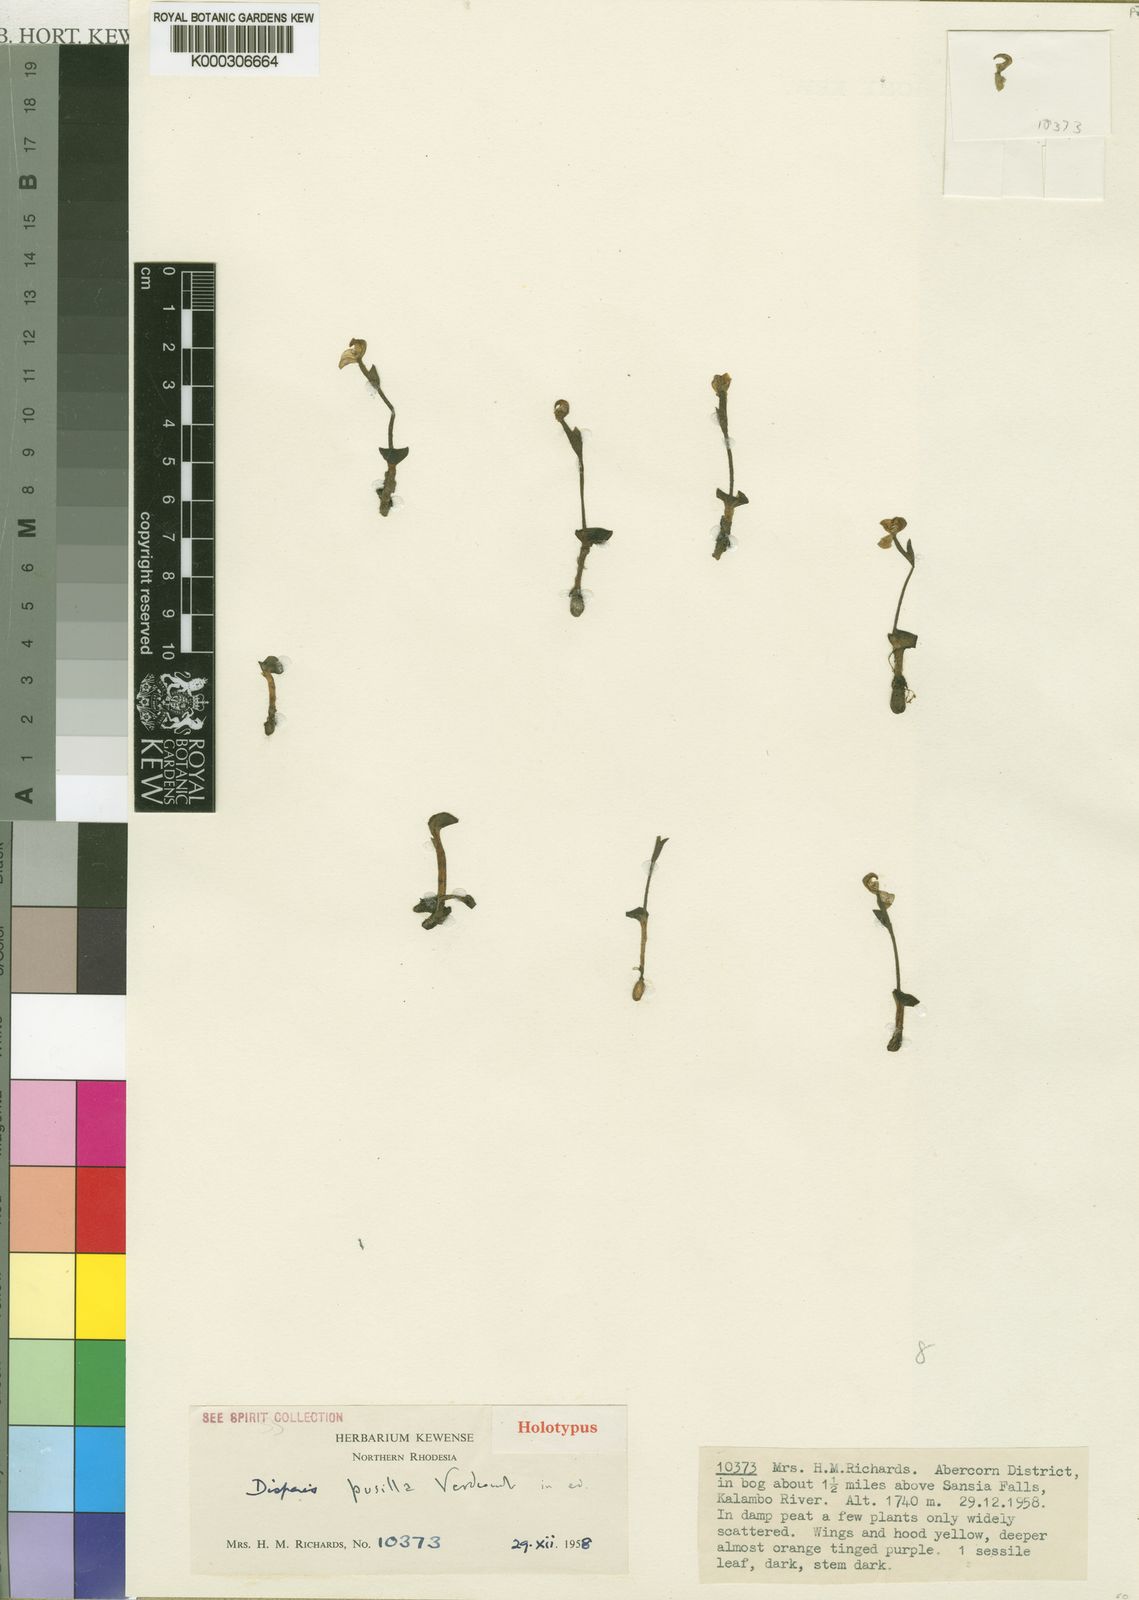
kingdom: Plantae
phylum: Tracheophyta
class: Liliopsida
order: Asparagales
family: Orchidaceae
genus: Disperis
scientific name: Disperis pusilla
